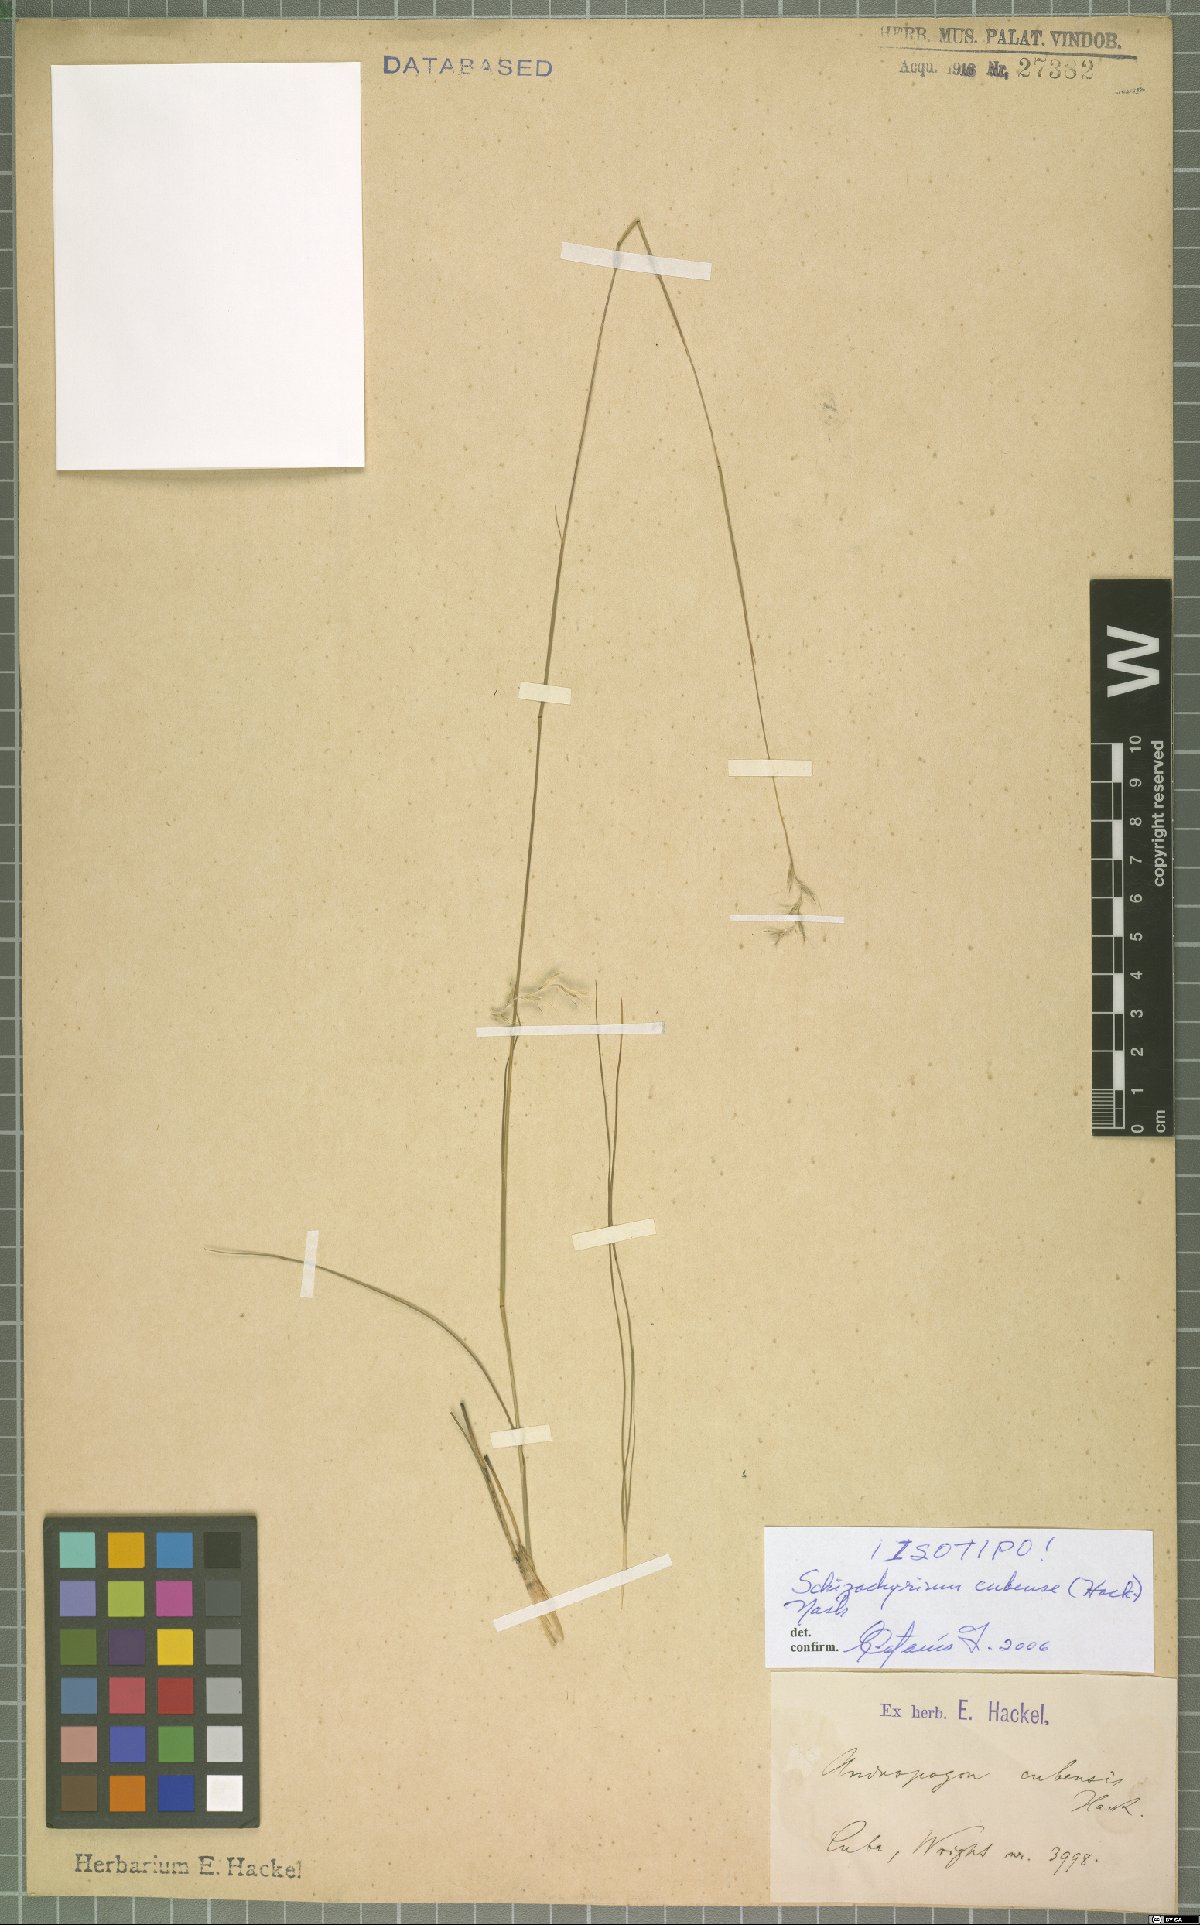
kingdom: Plantae
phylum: Tracheophyta
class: Liliopsida
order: Poales
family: Poaceae
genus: Schizachyrium
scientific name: Schizachyrium cubense
